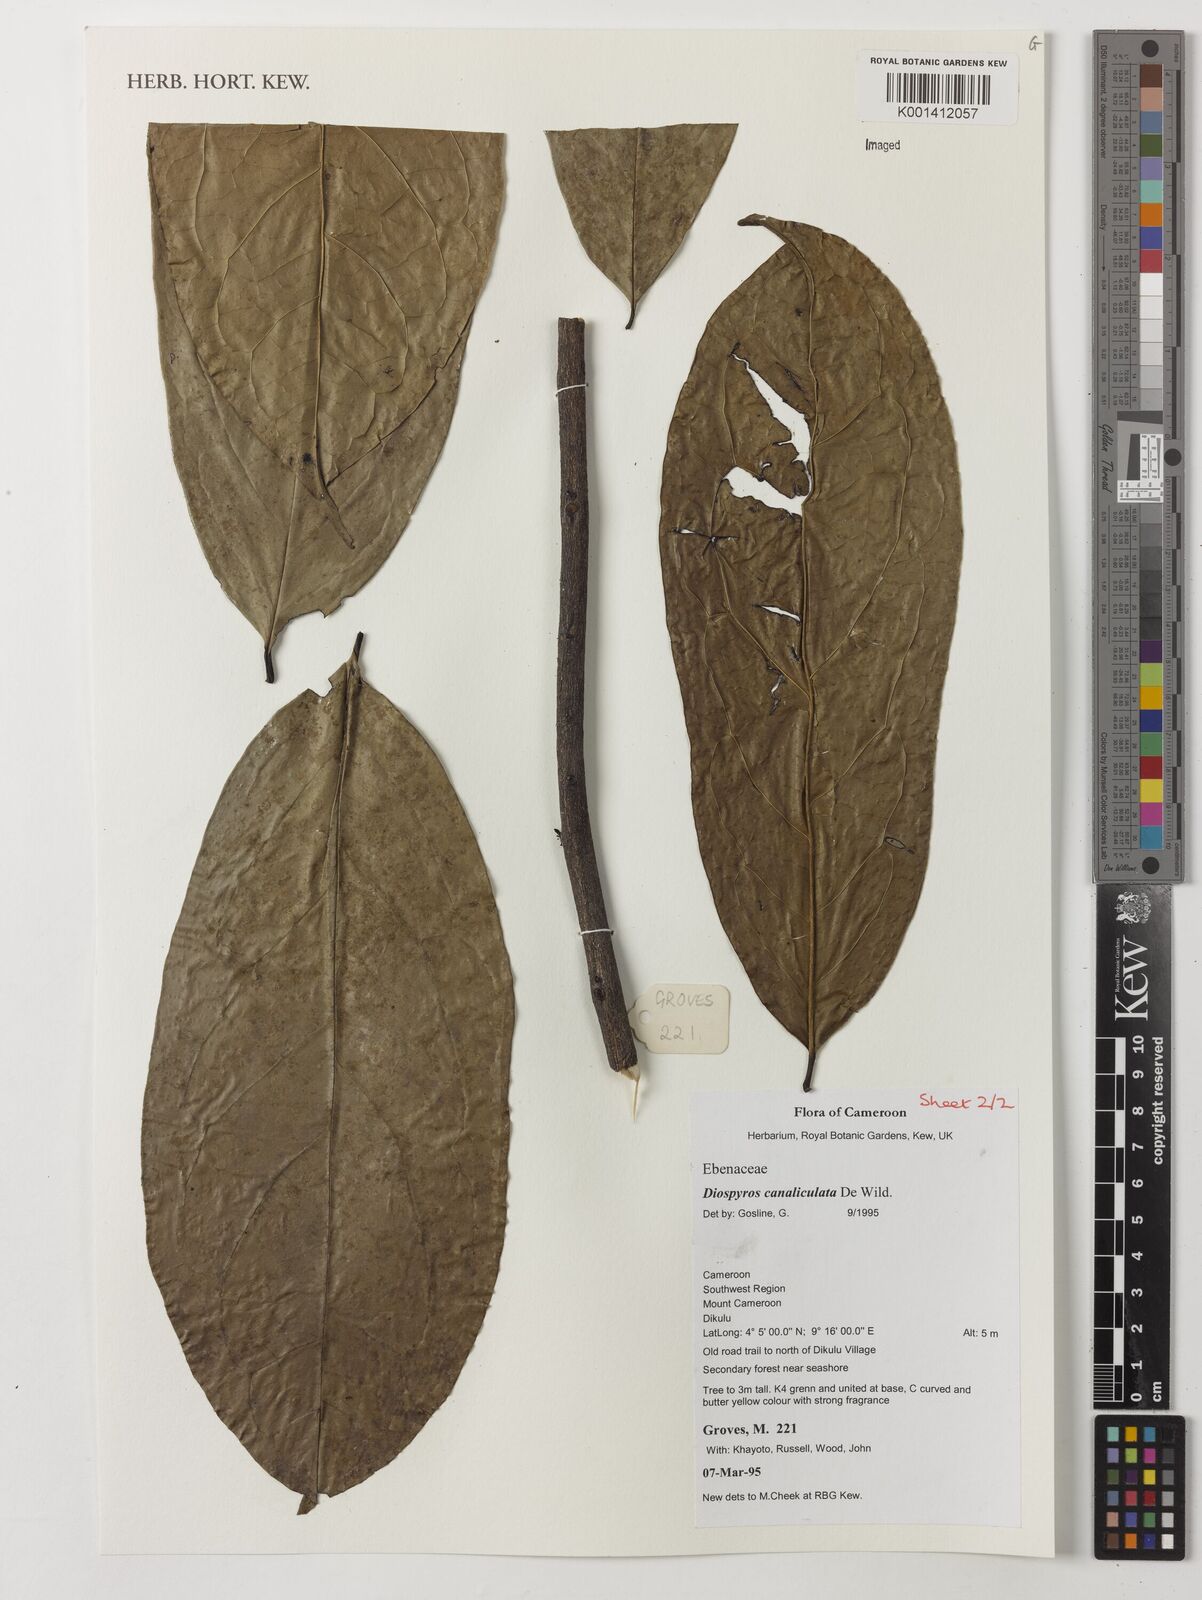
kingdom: Plantae
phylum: Tracheophyta
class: Magnoliopsida
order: Ericales
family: Ebenaceae
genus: Diospyros
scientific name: Diospyros canaliculata
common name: Flint bark
